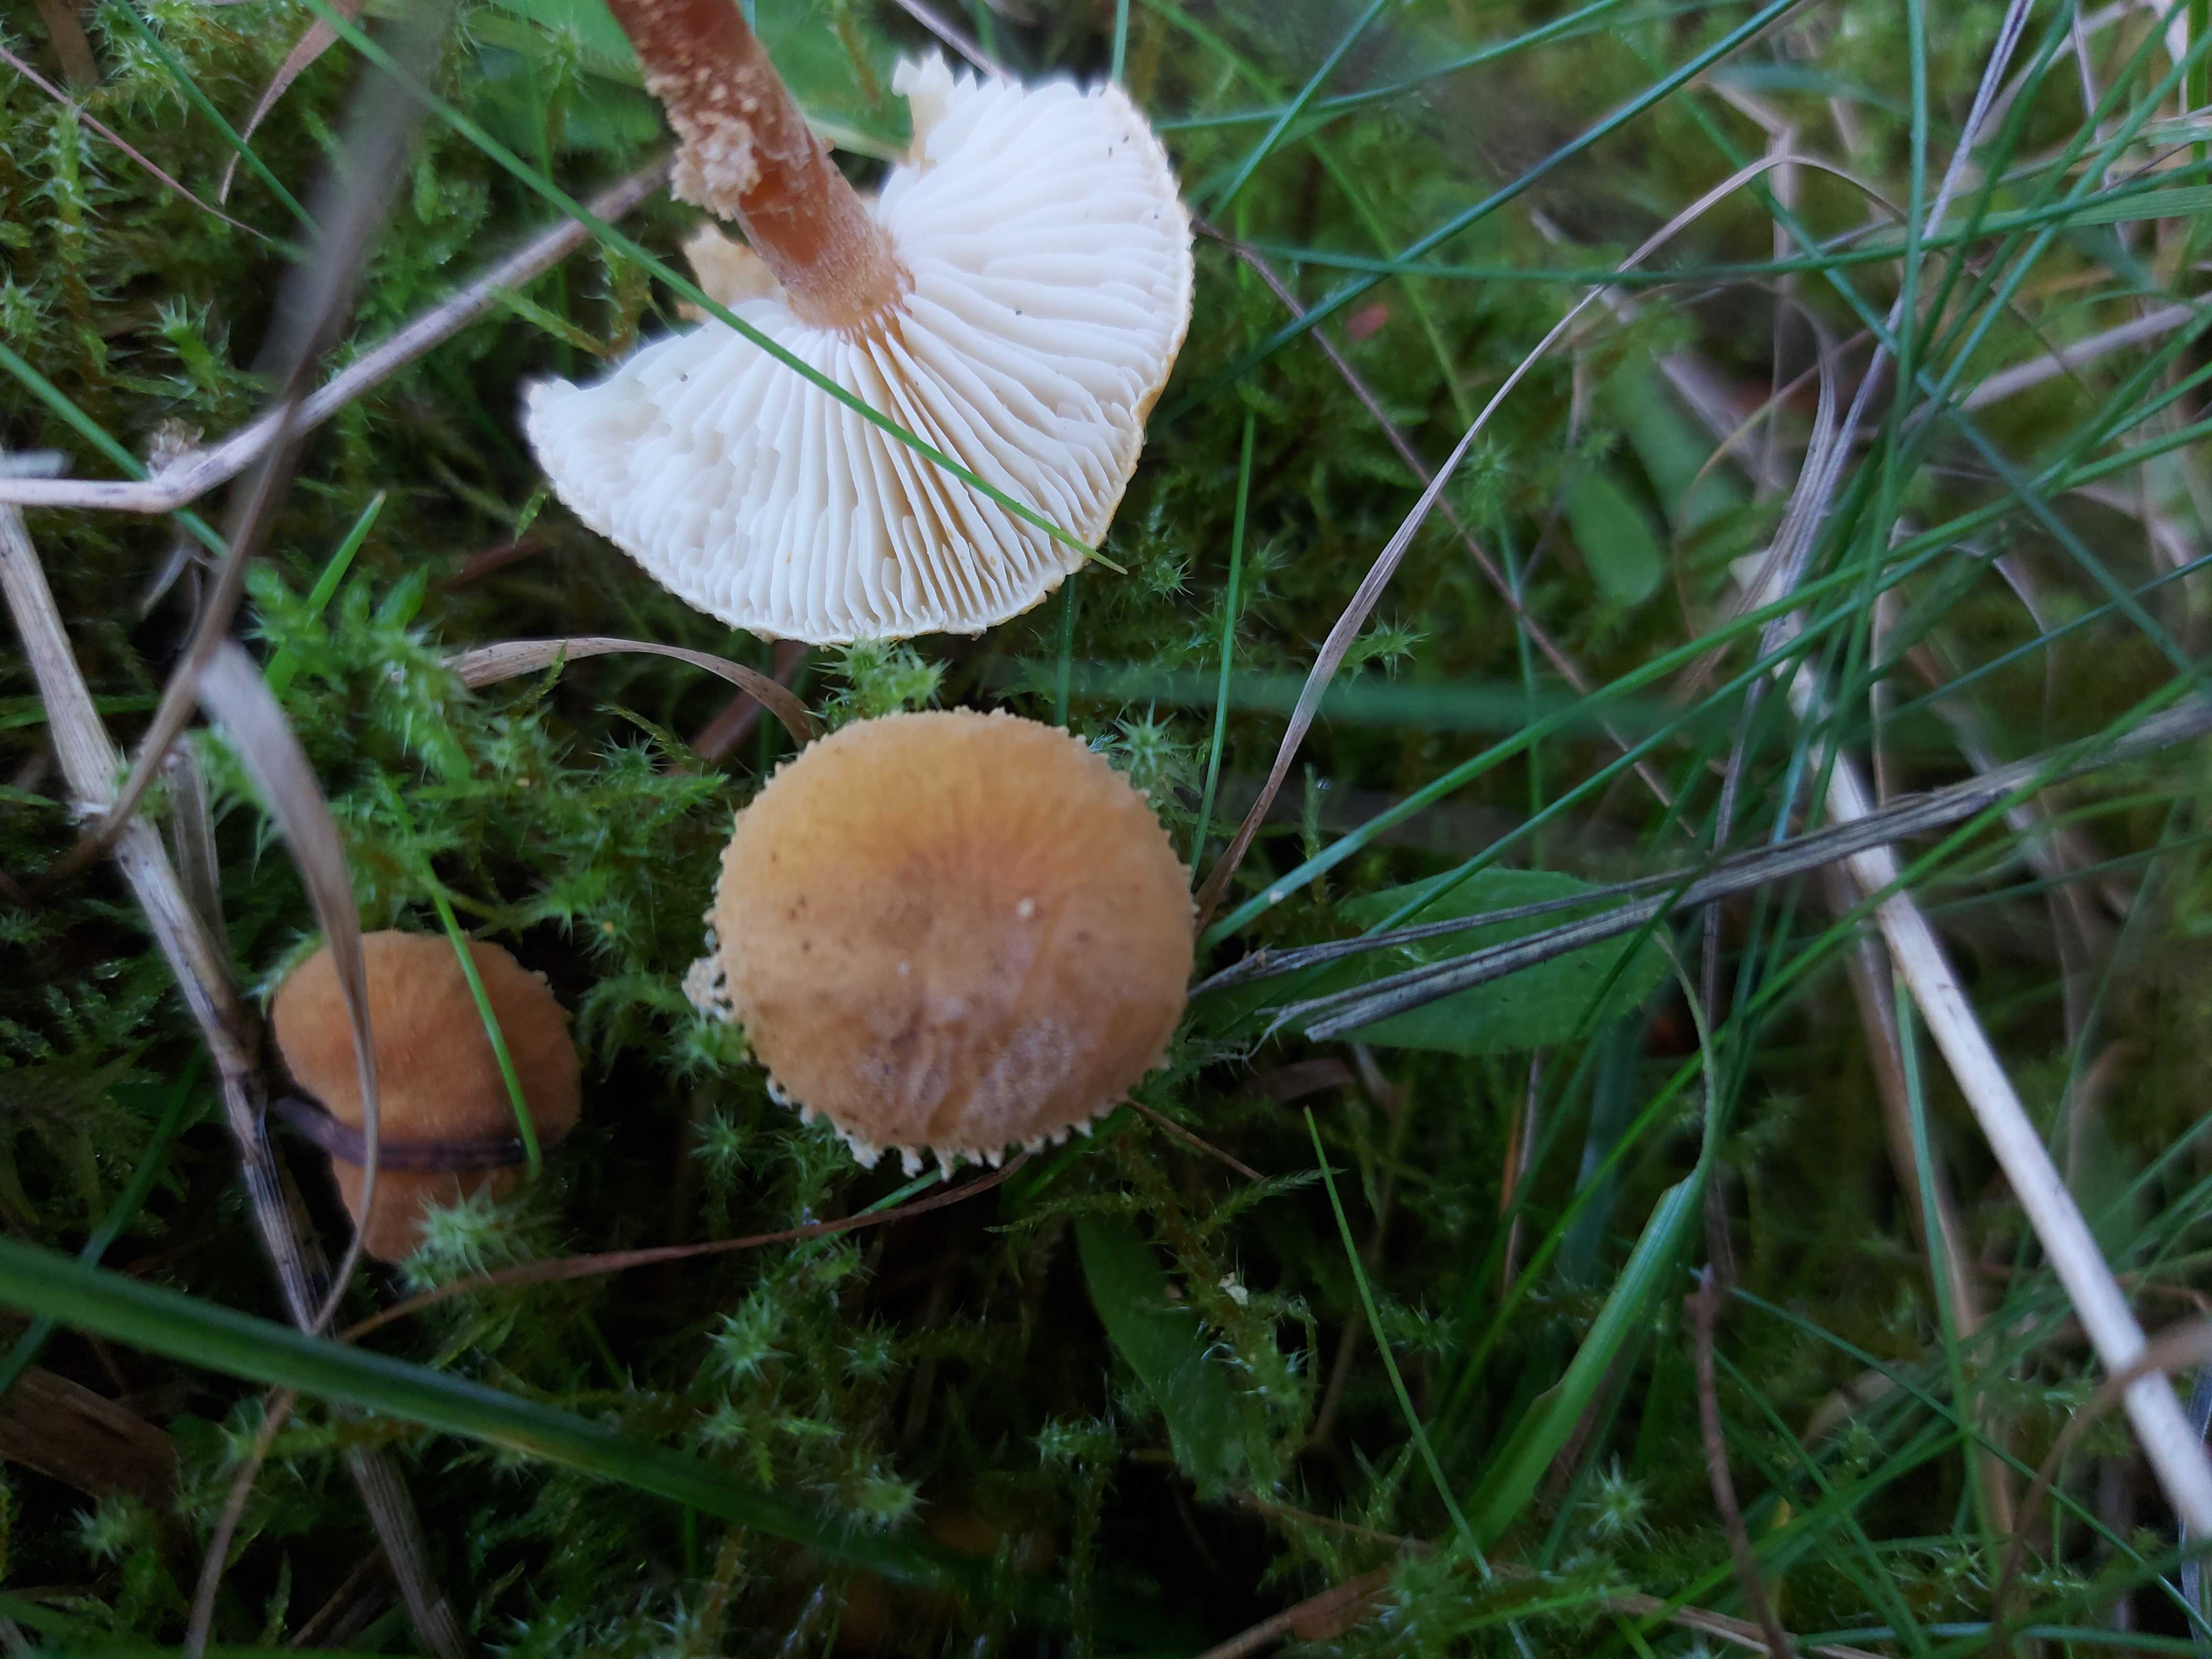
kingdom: Fungi
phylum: Basidiomycota
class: Agaricomycetes
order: Agaricales
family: Tricholomataceae
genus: Cystoderma
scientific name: Cystoderma amianthinum
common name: okkergul grynhat
